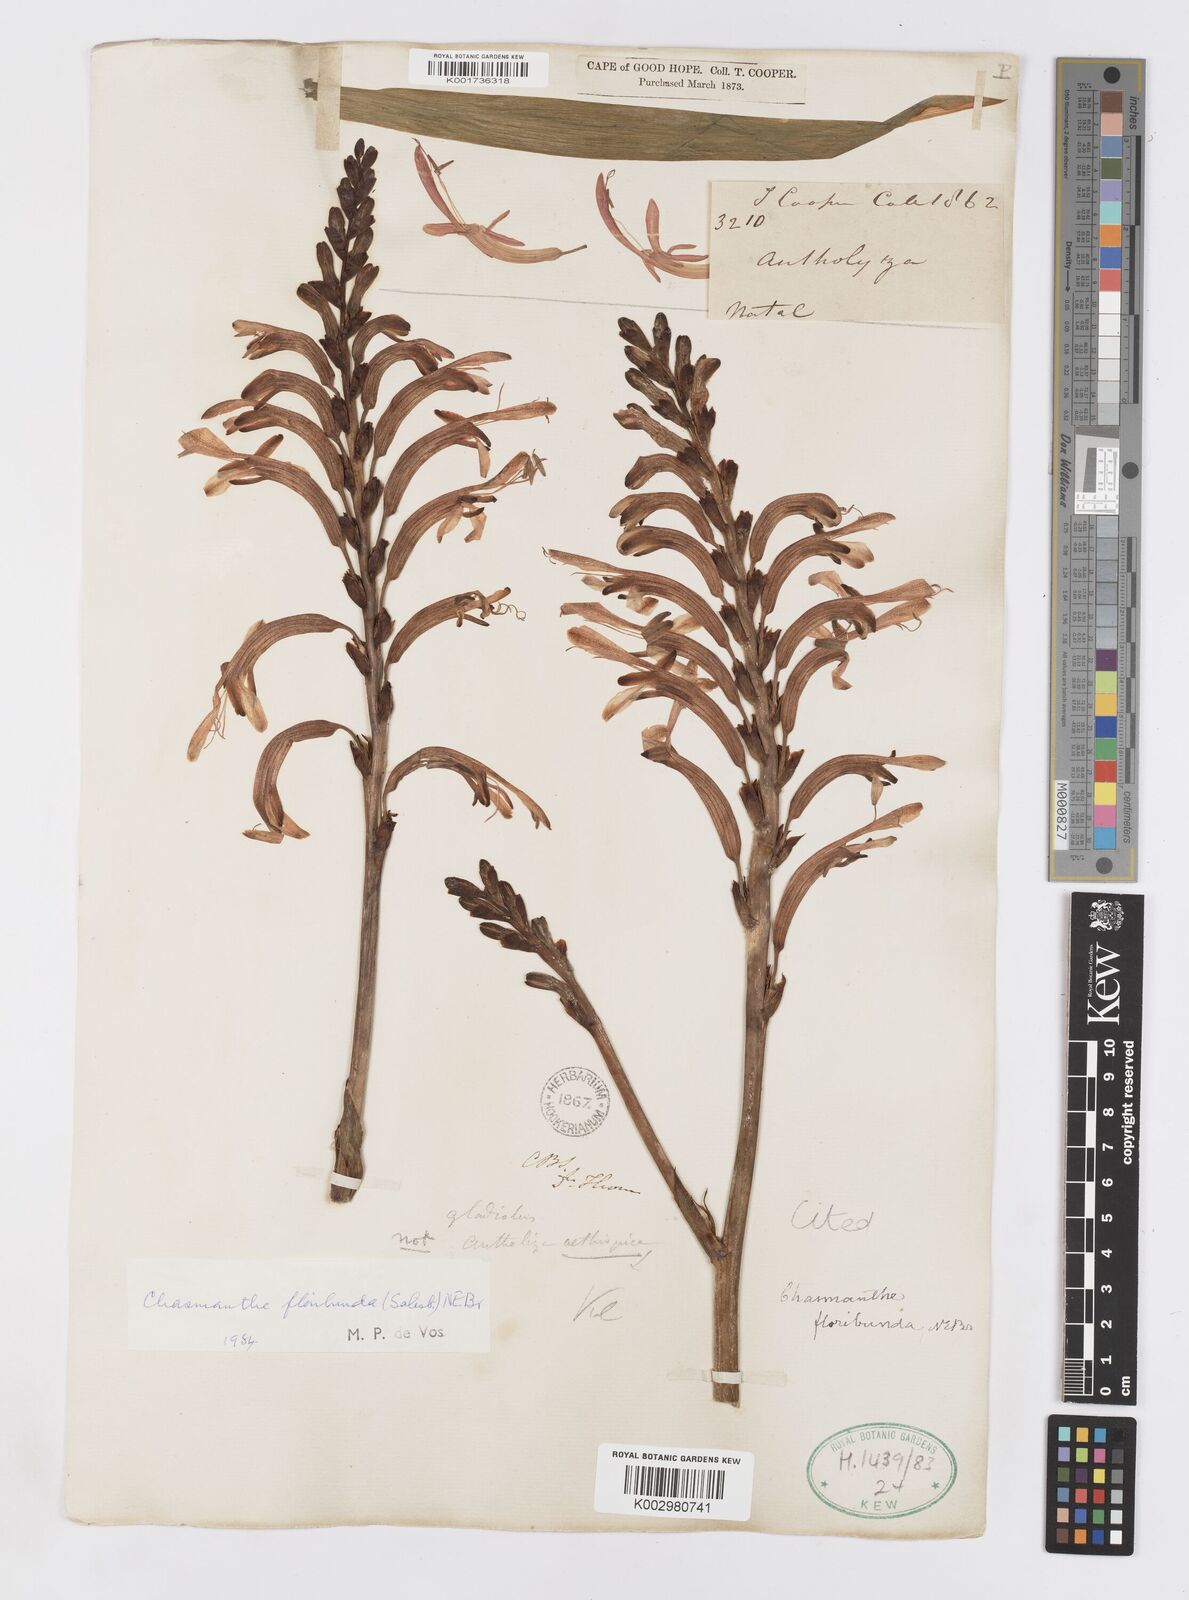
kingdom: Plantae
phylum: Tracheophyta
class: Liliopsida
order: Asparagales
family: Iridaceae
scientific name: Iridaceae
